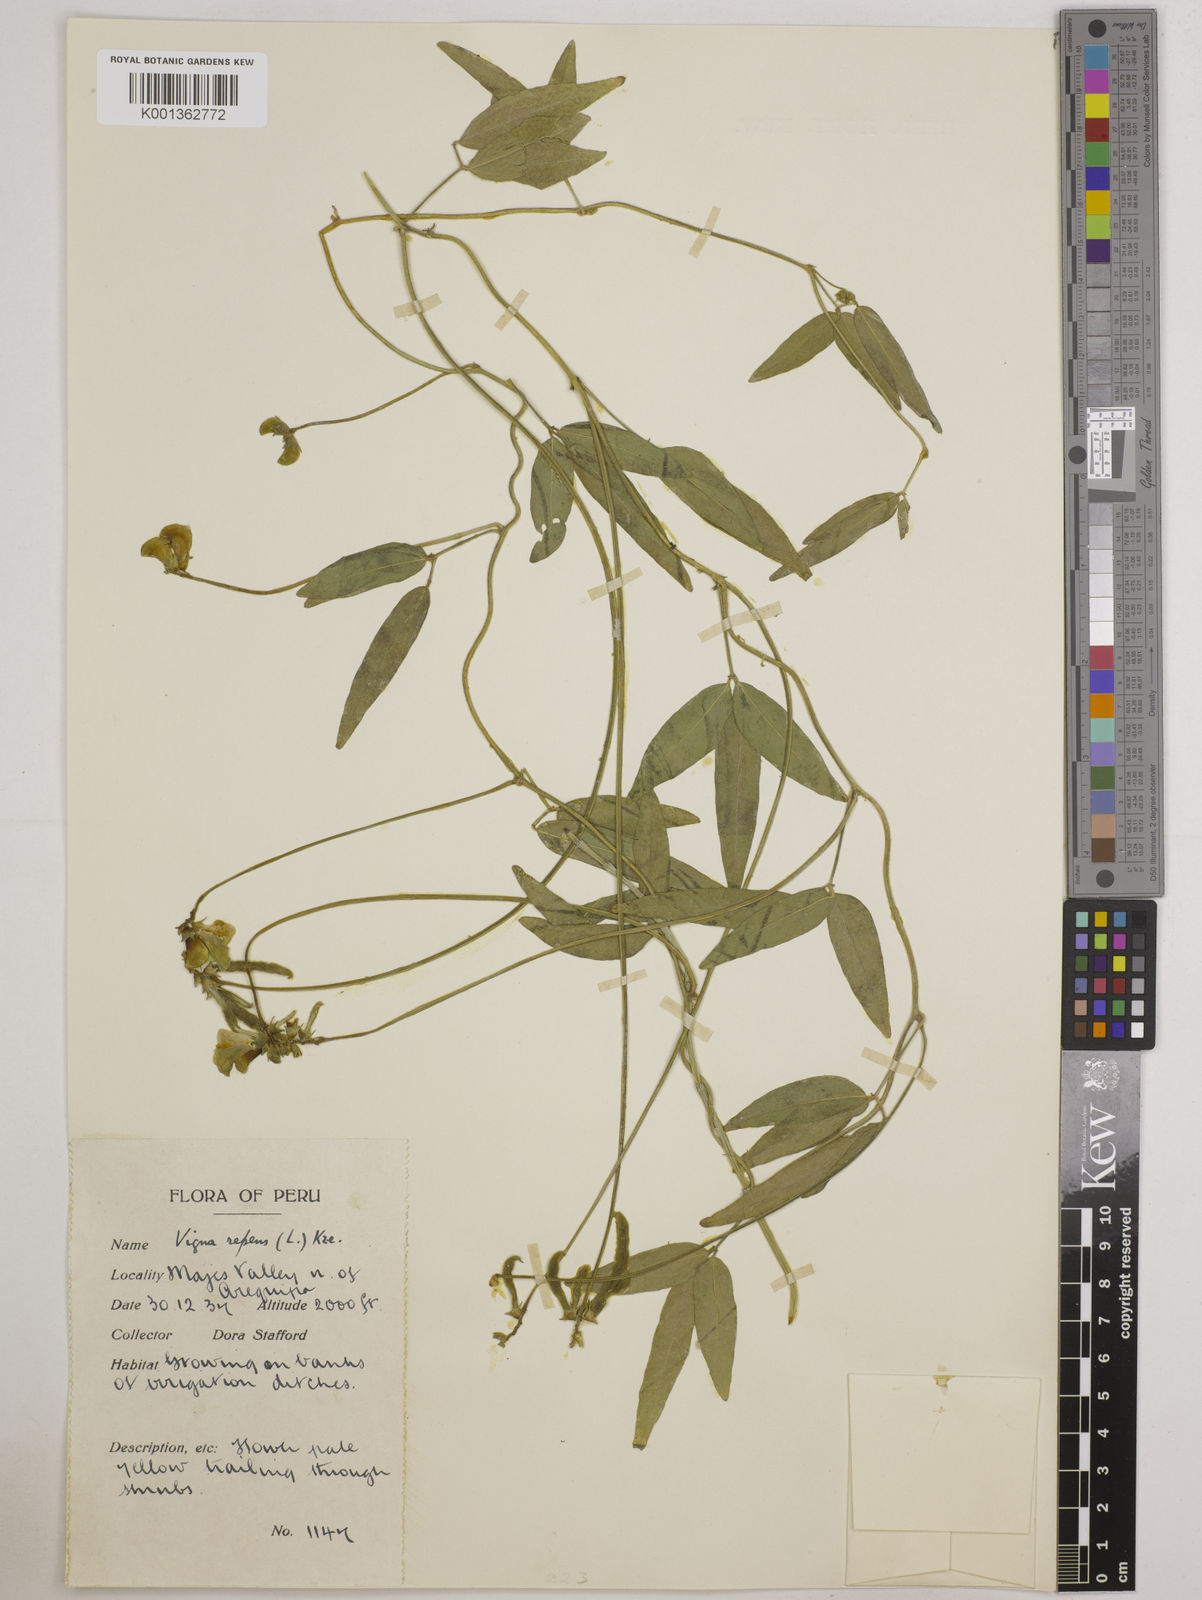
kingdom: Plantae
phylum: Tracheophyta
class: Magnoliopsida
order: Fabales
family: Fabaceae
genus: Vigna
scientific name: Vigna luteola
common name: Hairypod cowpea
